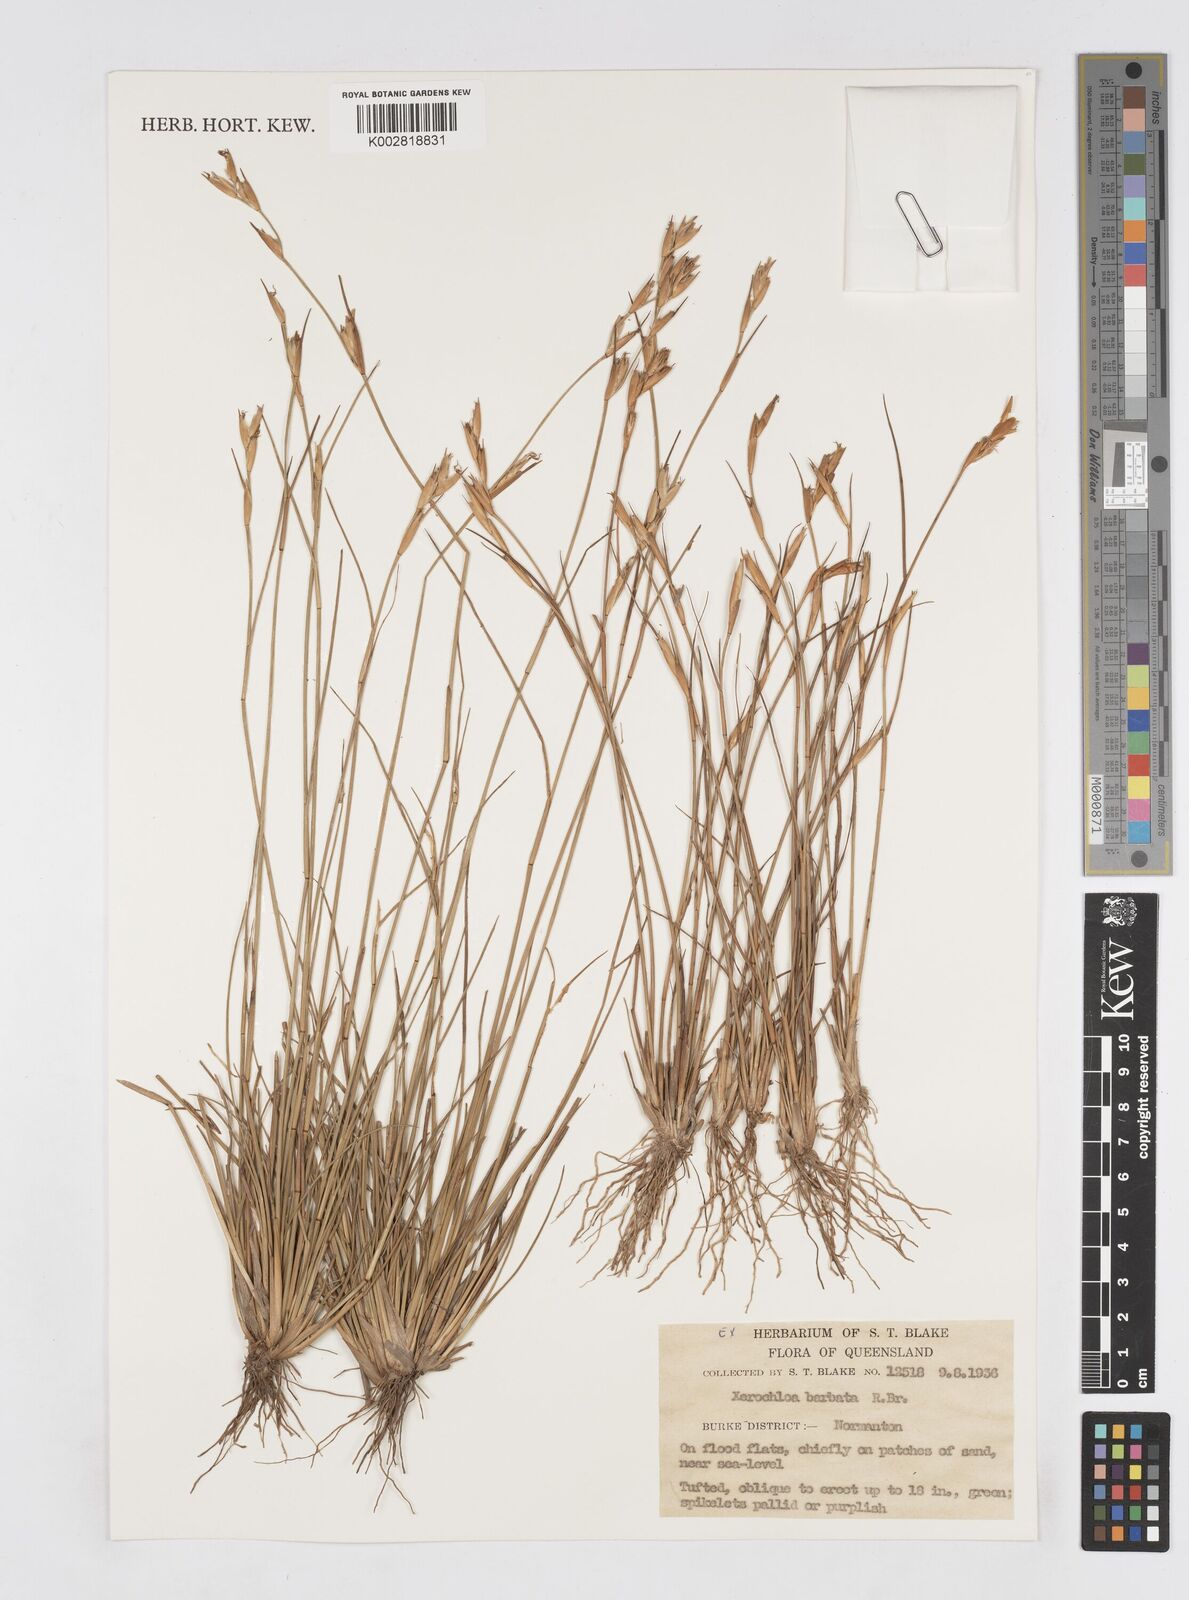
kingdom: Plantae
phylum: Tracheophyta
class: Liliopsida
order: Poales
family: Poaceae
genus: Xerochloa
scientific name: Xerochloa barbata
